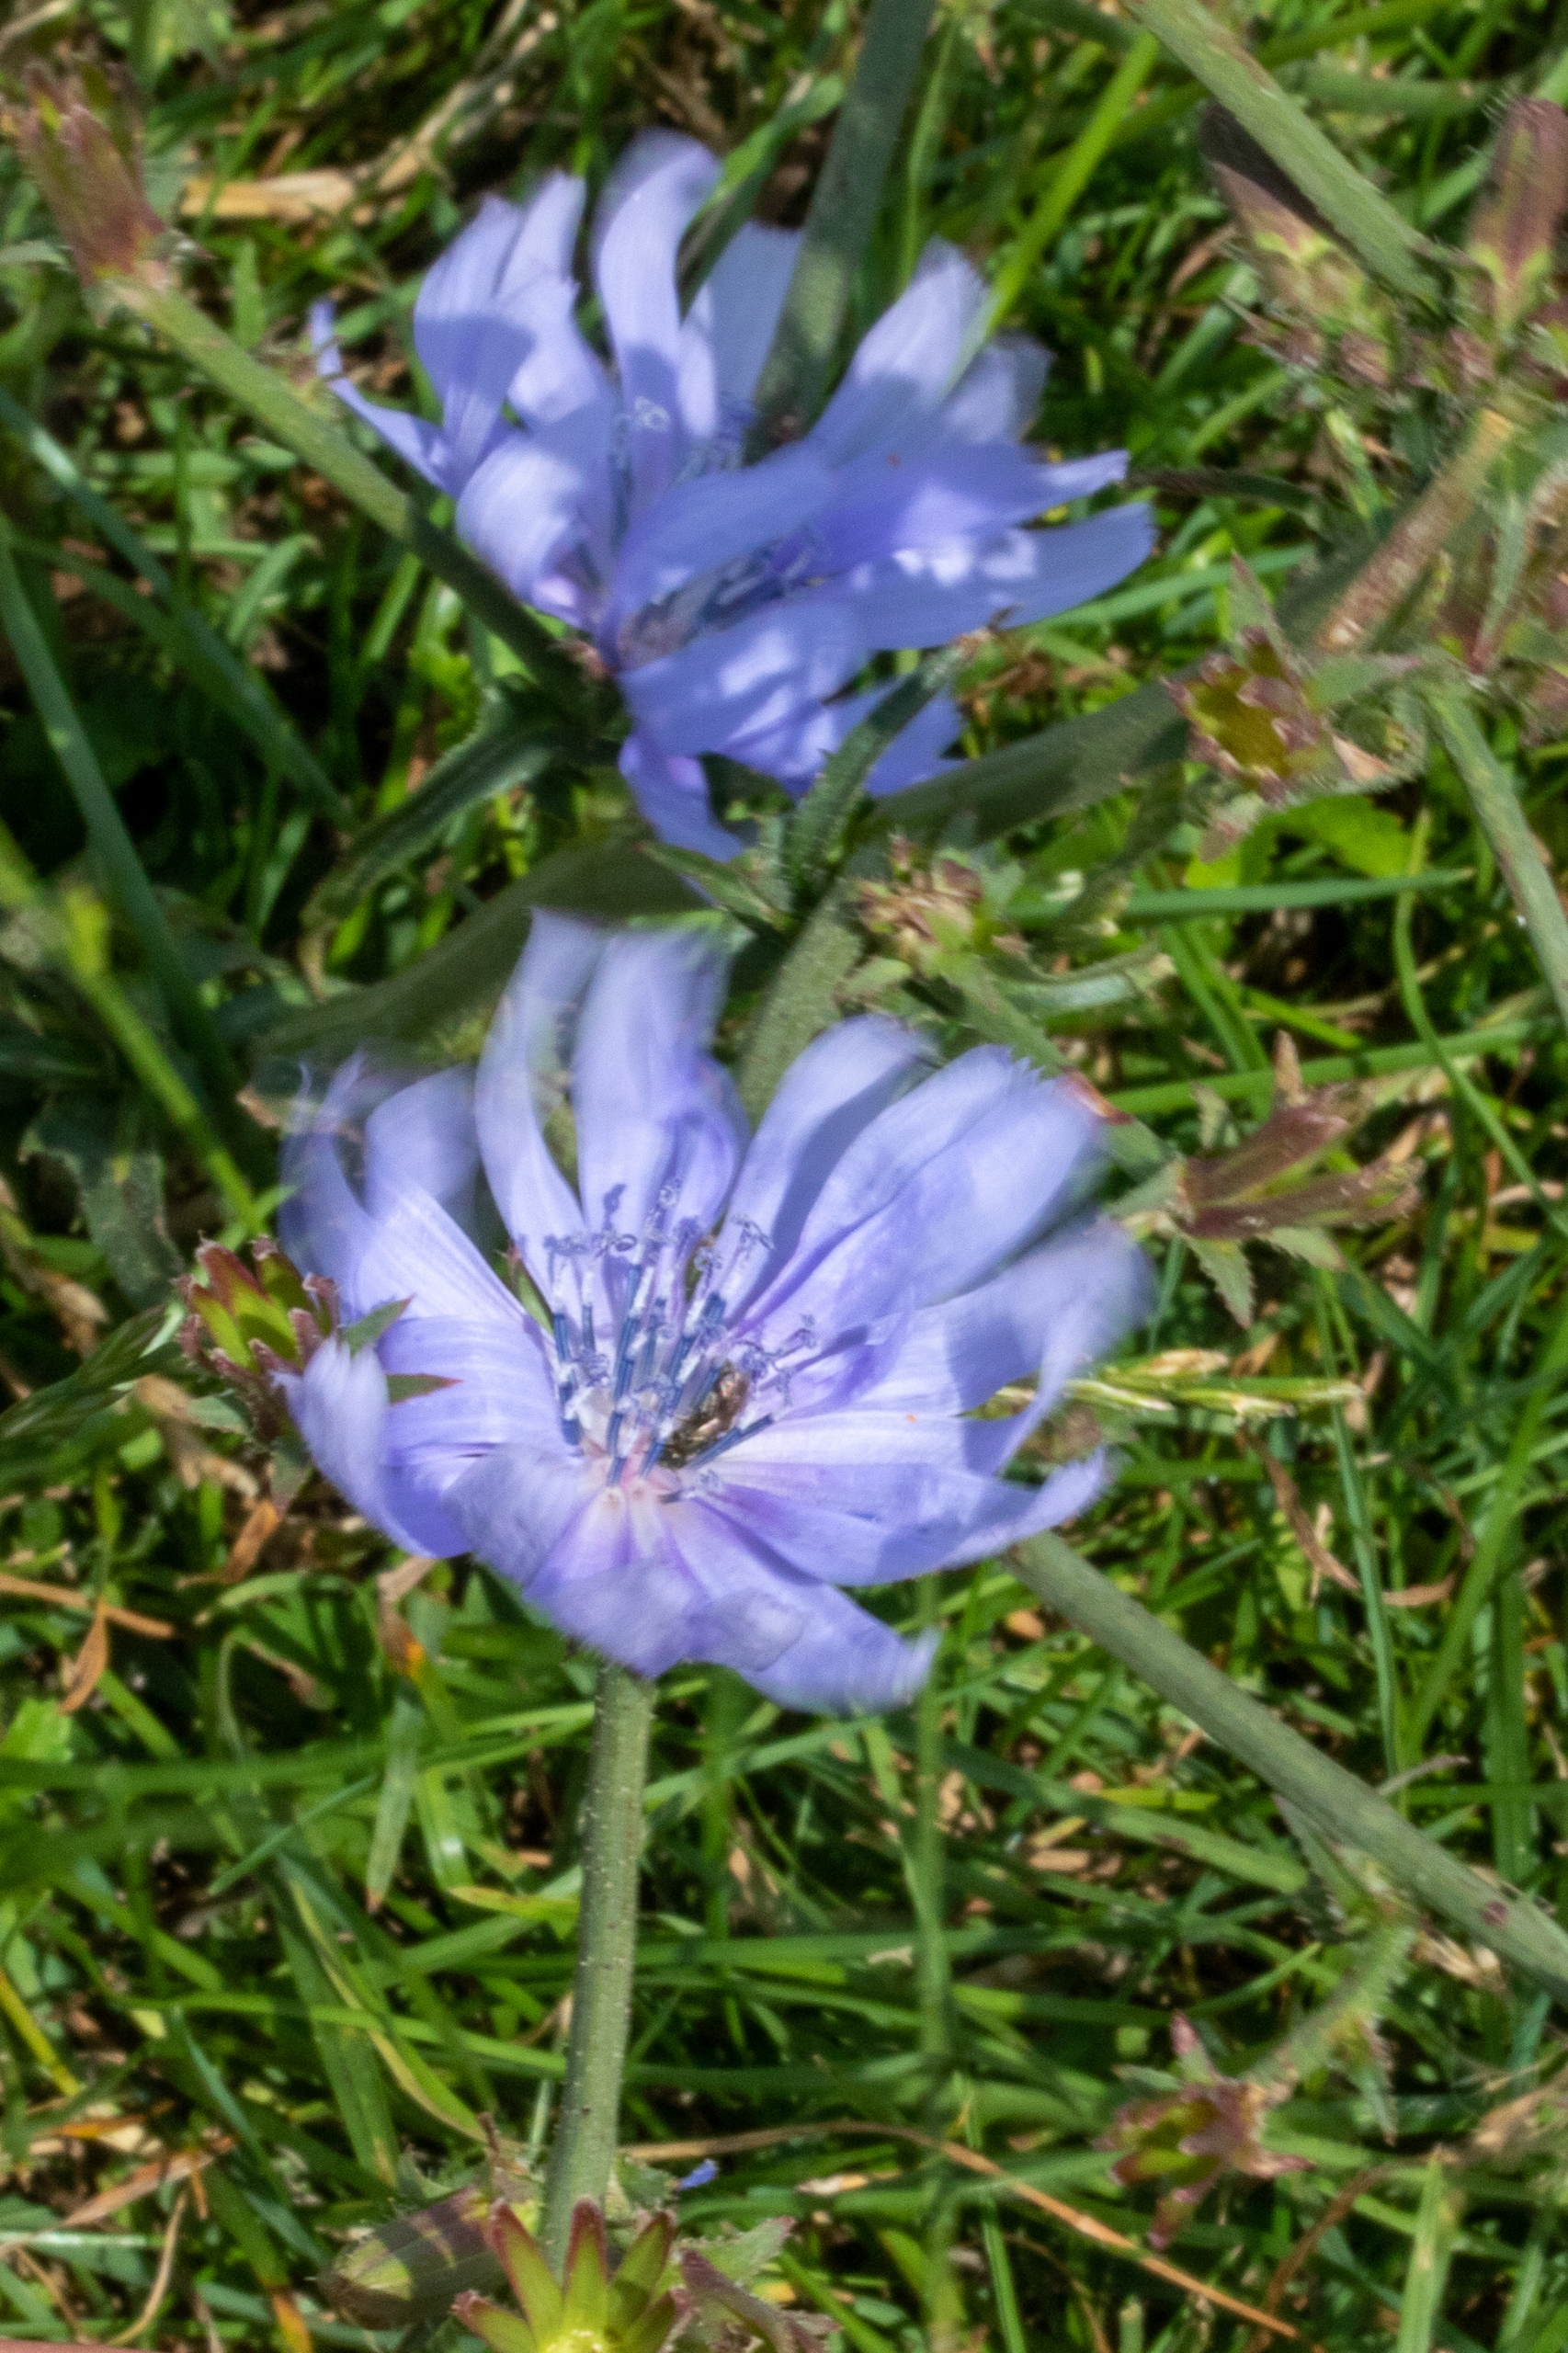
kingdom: Plantae
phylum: Tracheophyta
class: Magnoliopsida
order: Asterales
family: Asteraceae
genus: Cichorium
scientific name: Cichorium intybus
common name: Cikorie
